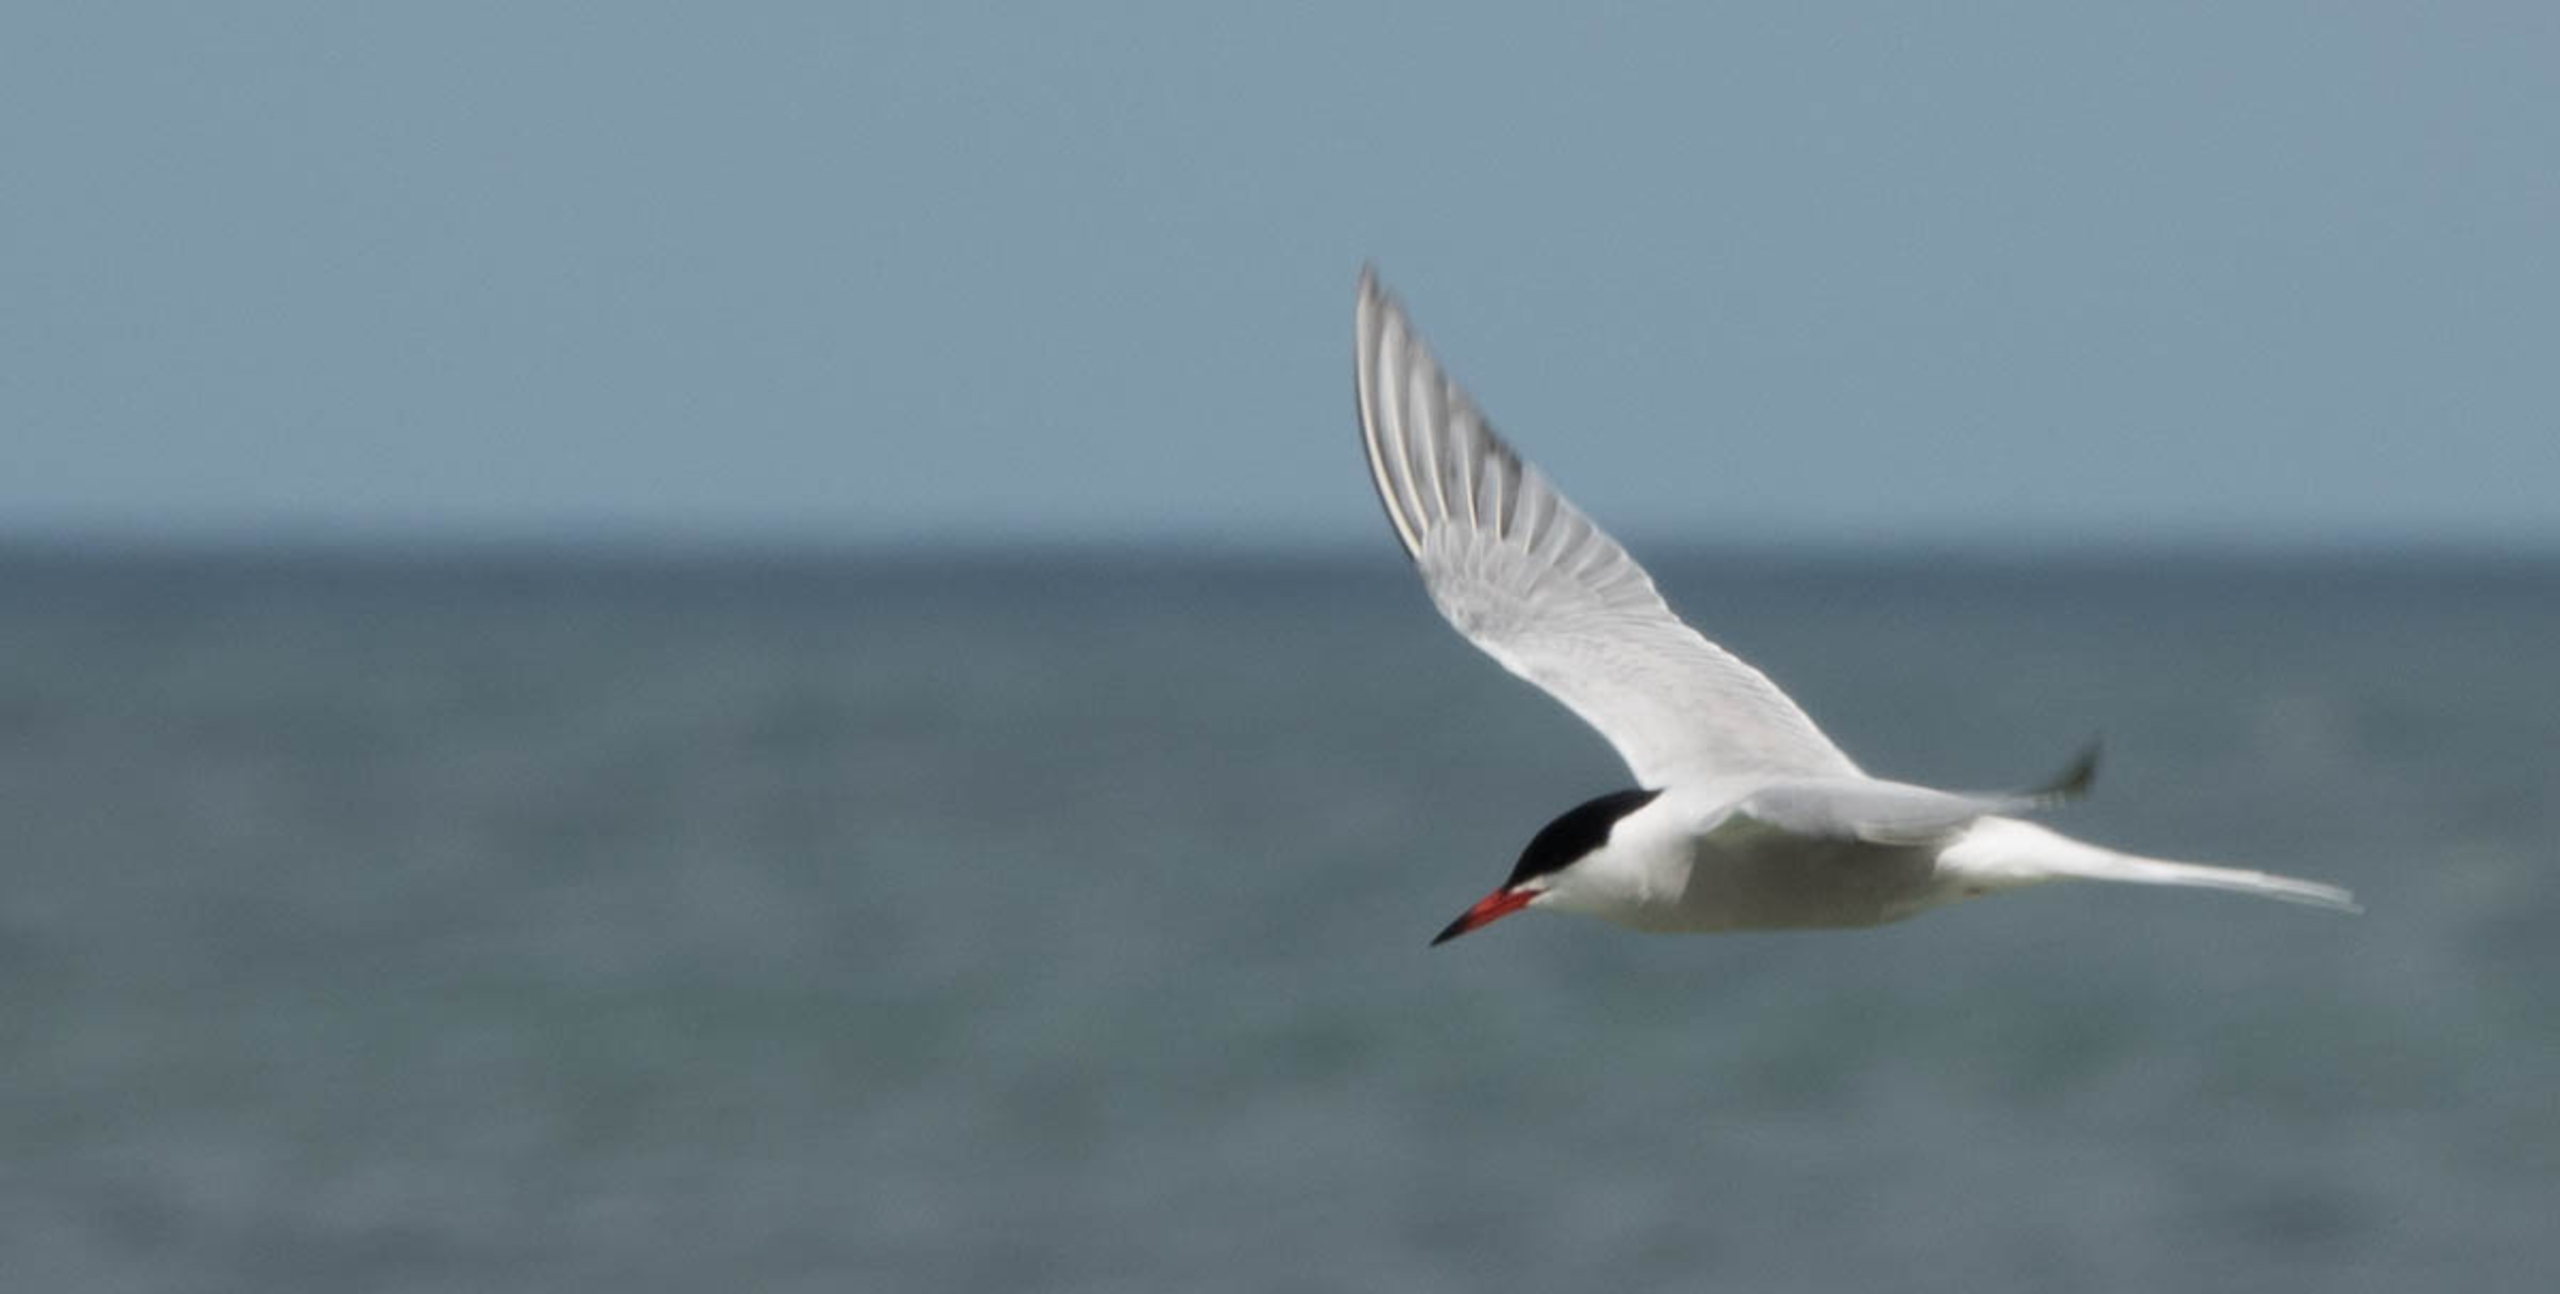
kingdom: Animalia
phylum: Chordata
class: Aves
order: Charadriiformes
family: Laridae
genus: Sterna
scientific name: Sterna hirundo
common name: Fjordterne
